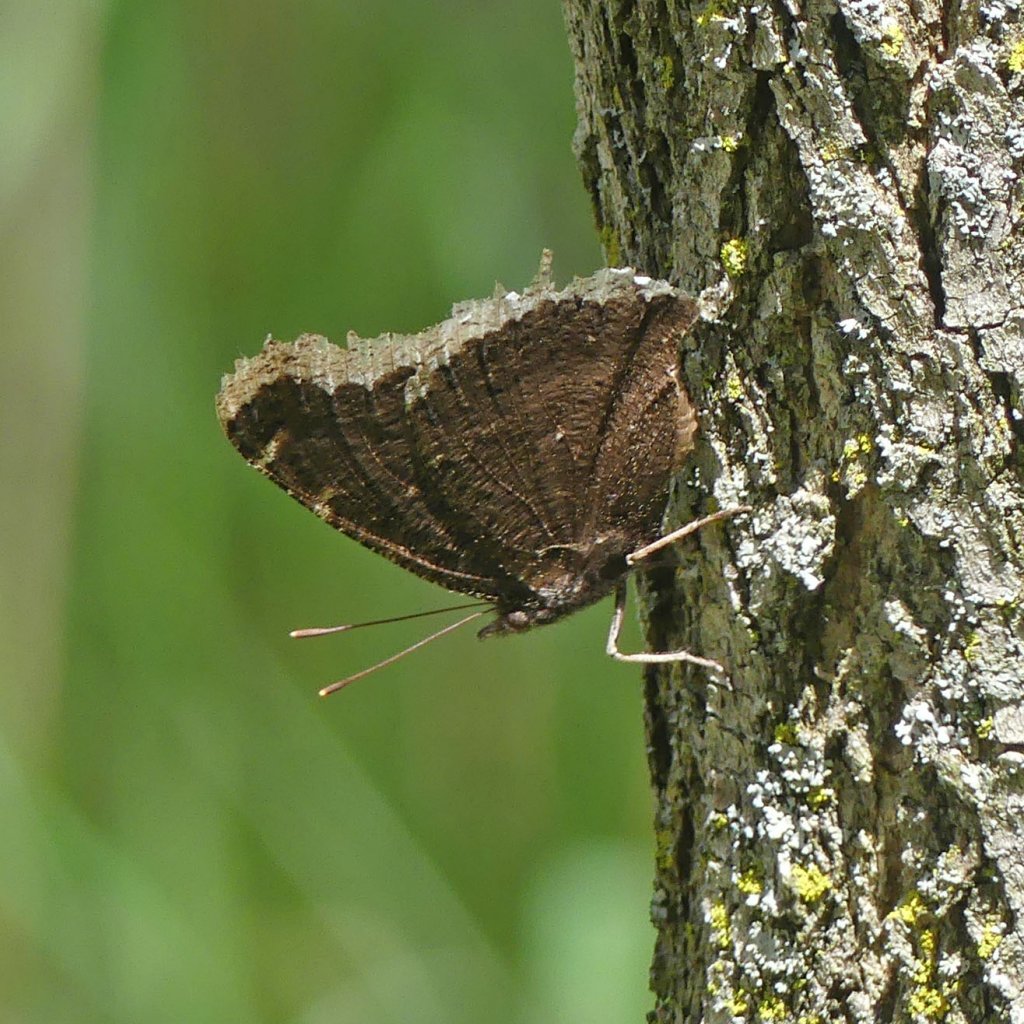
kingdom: Animalia
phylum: Arthropoda
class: Insecta
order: Lepidoptera
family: Nymphalidae
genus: Nymphalis
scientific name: Nymphalis antiopa
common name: Mourning Cloak
